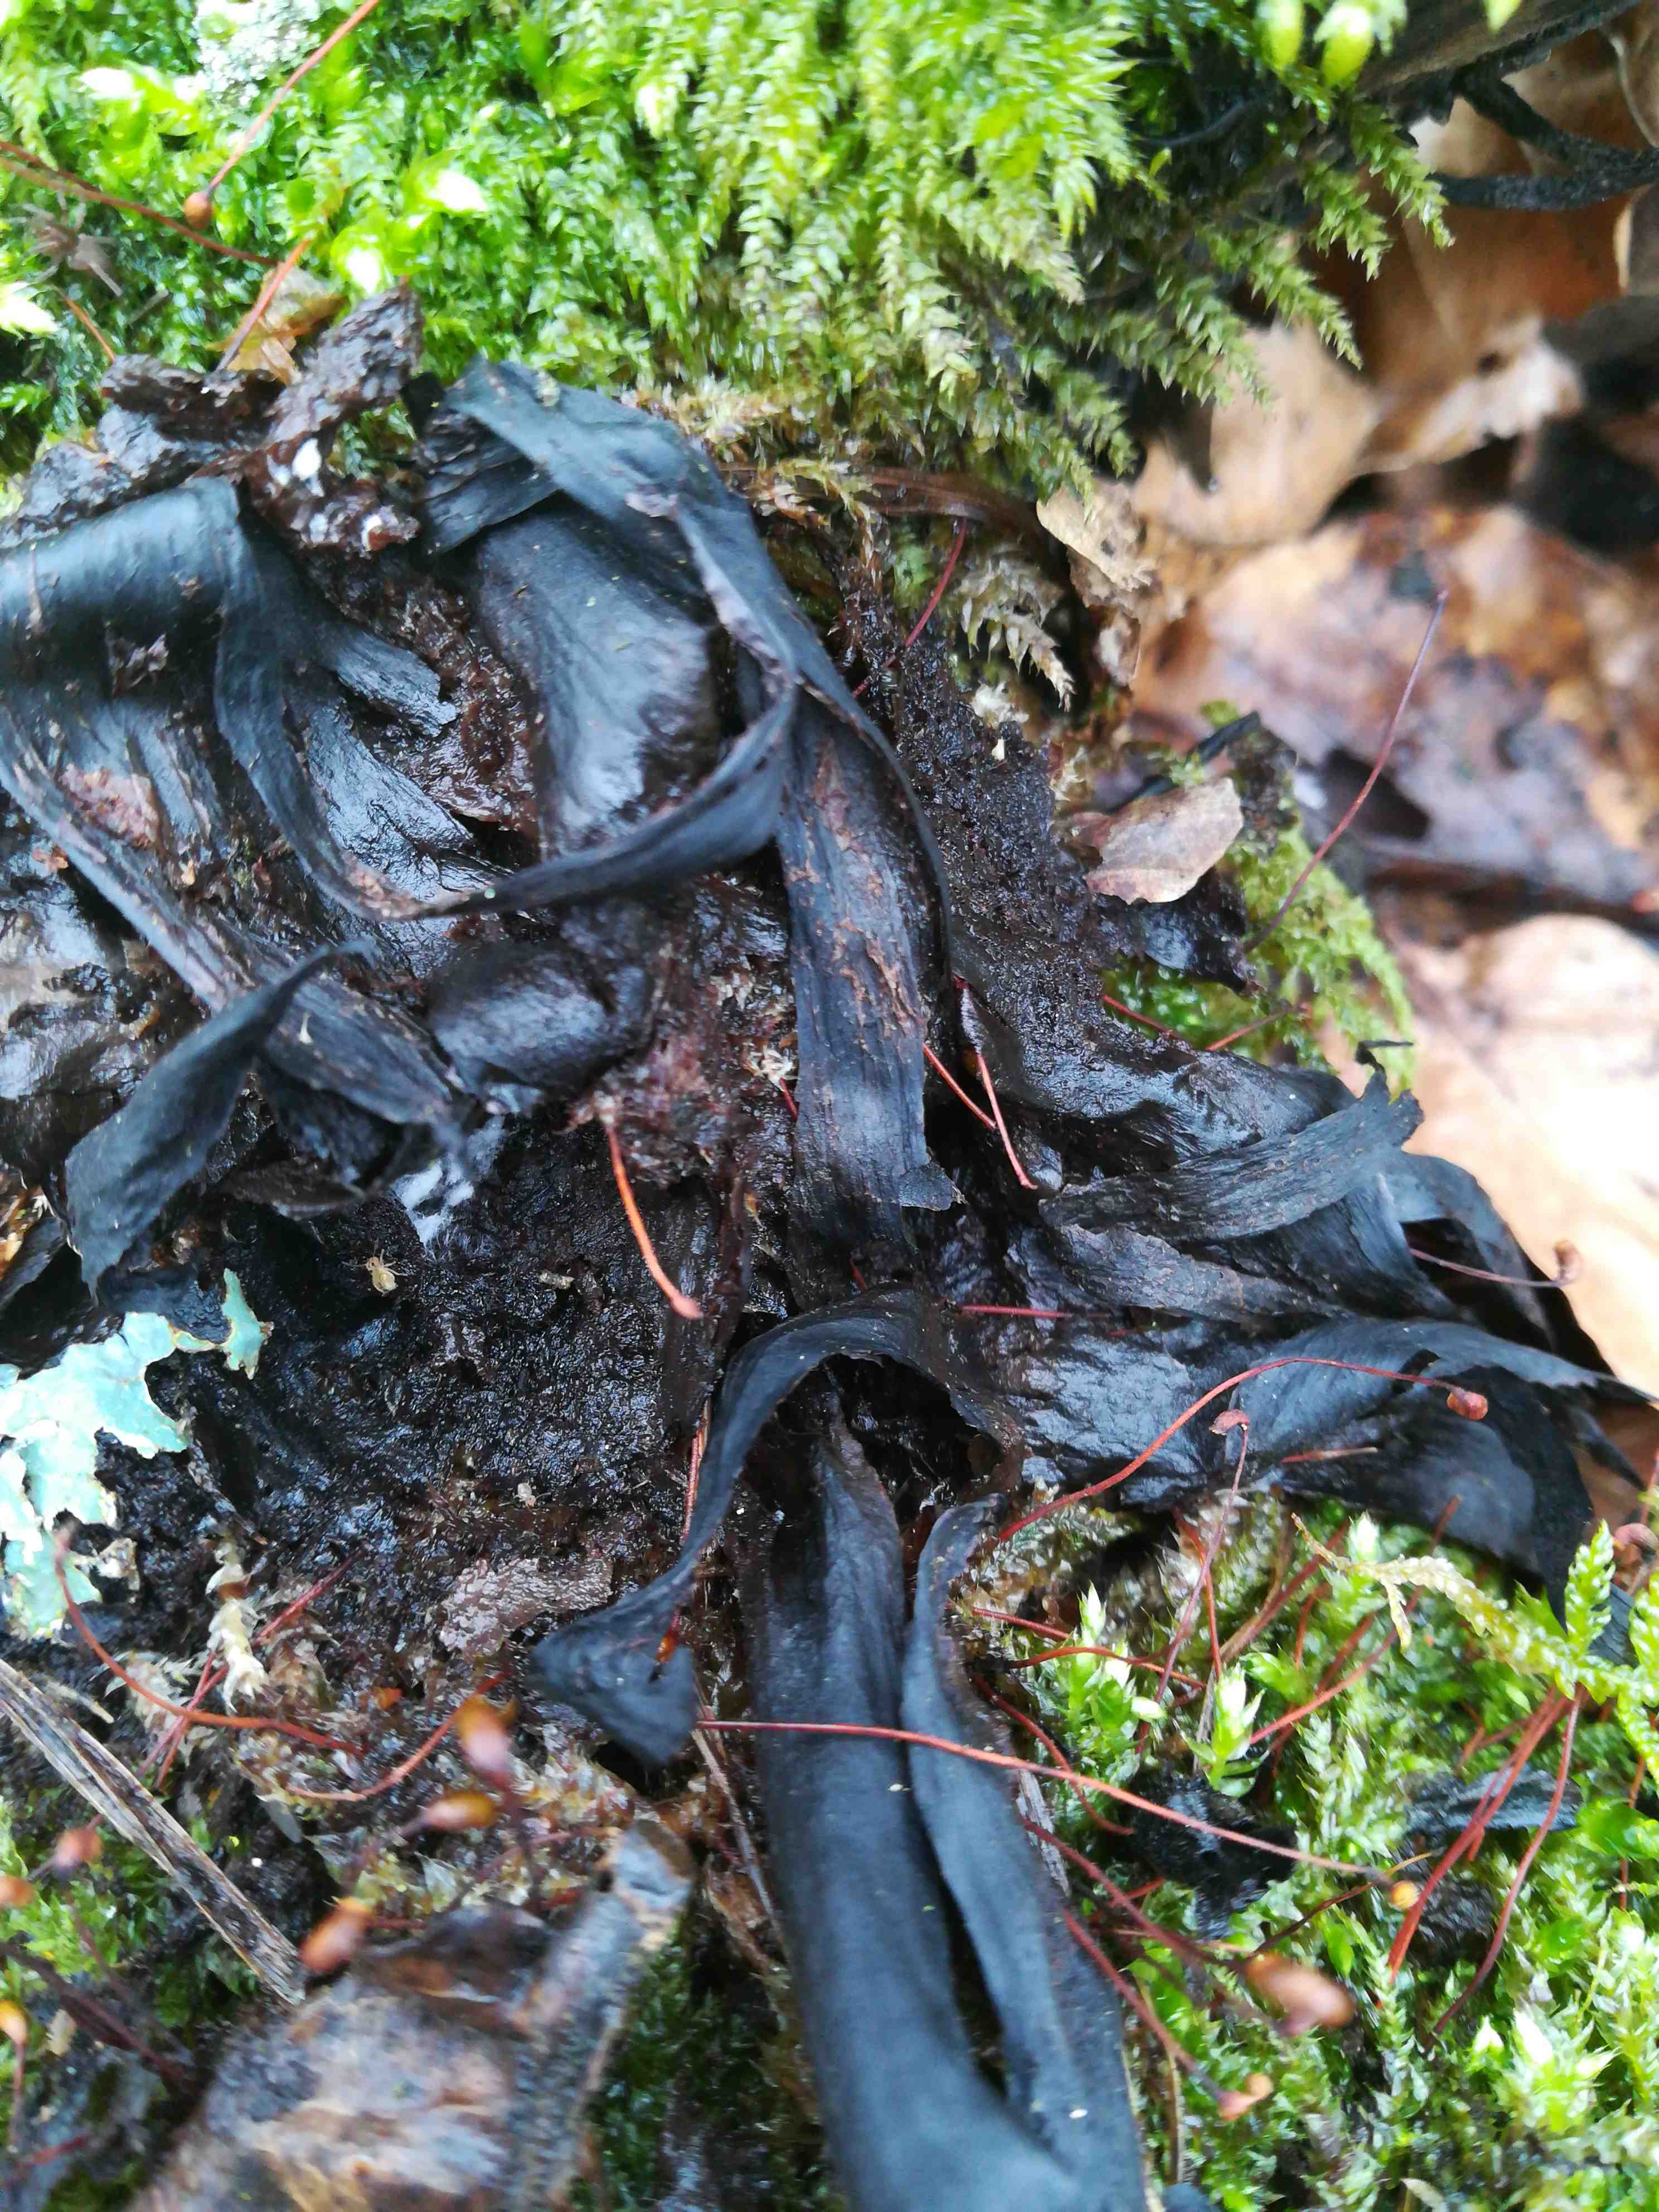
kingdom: Fungi
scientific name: Fungi
